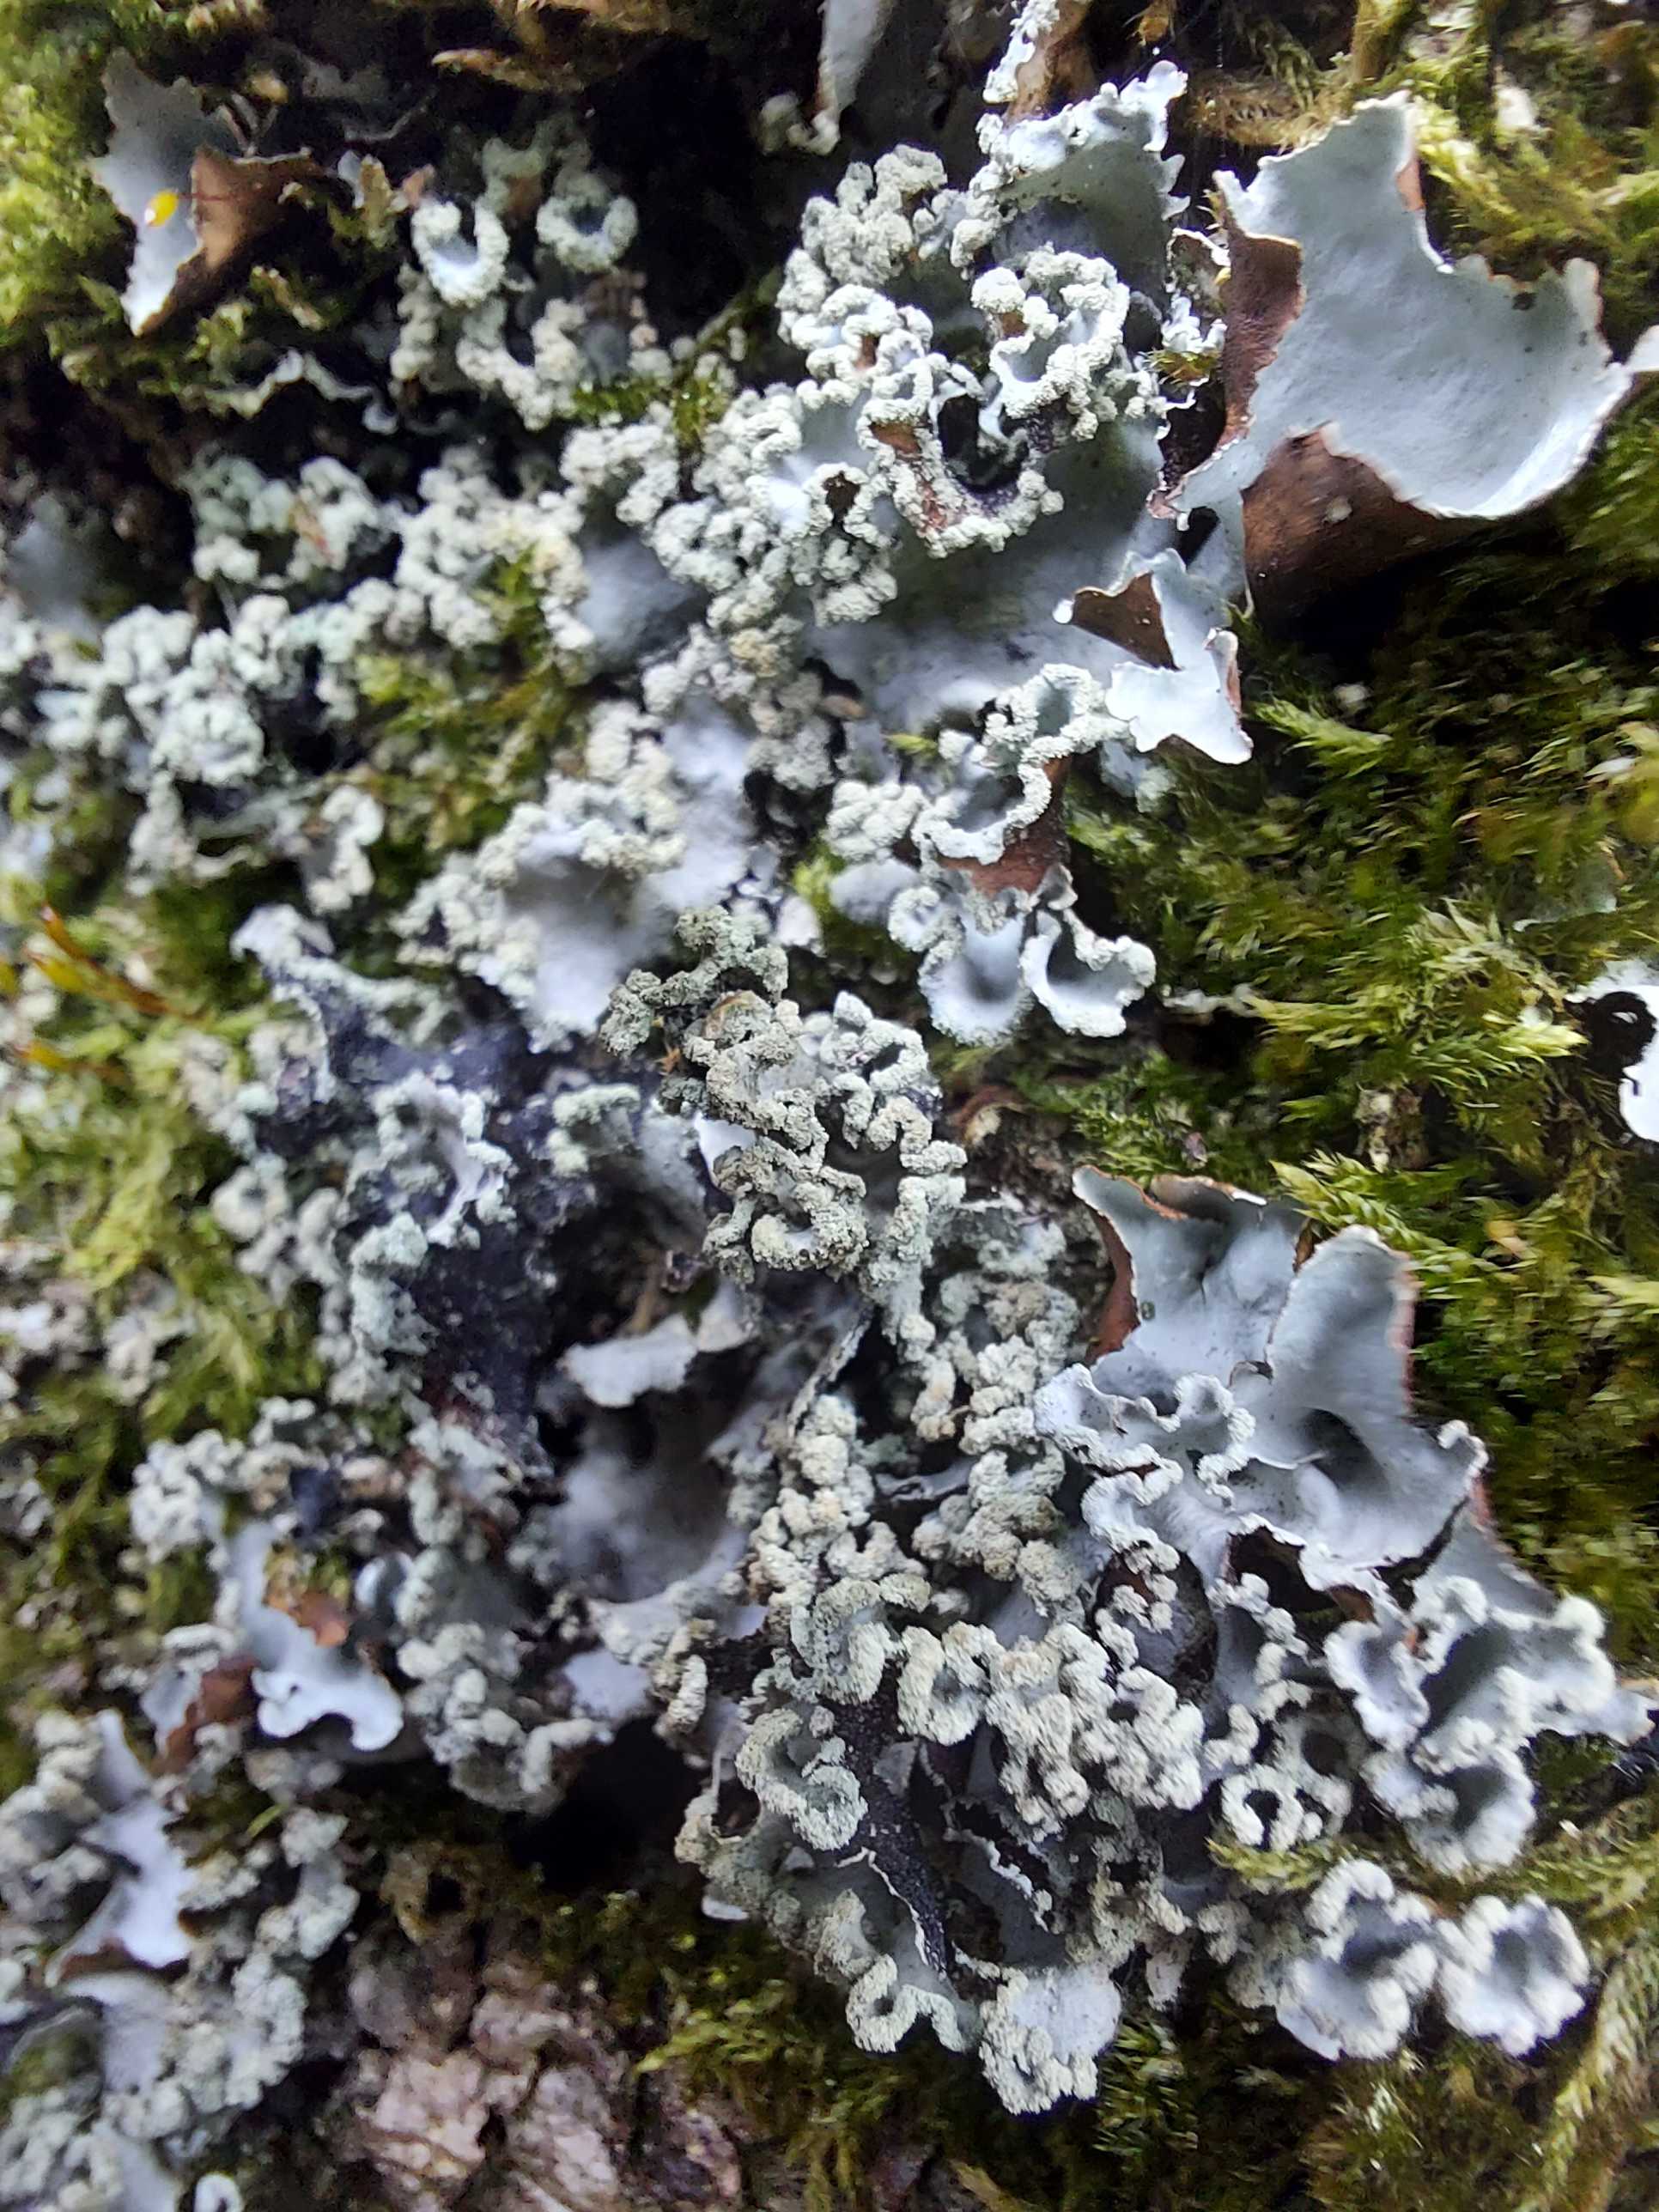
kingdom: Fungi
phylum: Ascomycota
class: Lecanoromycetes
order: Lecanorales
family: Parmeliaceae
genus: Parmotrema
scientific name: Parmotrema perlatum
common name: trådet skållav
